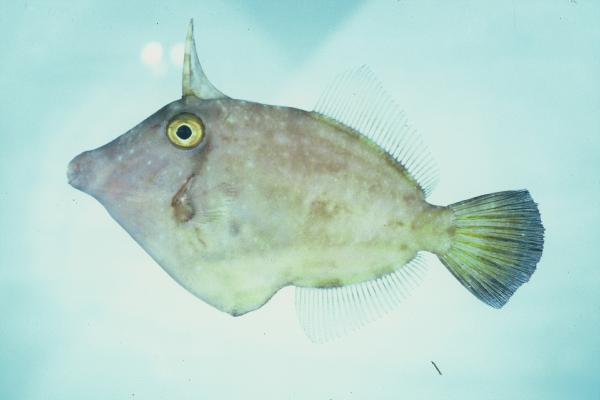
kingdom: Animalia
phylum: Chordata
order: Tetraodontiformes
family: Monacanthidae
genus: Cantherhines
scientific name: Cantherhines
